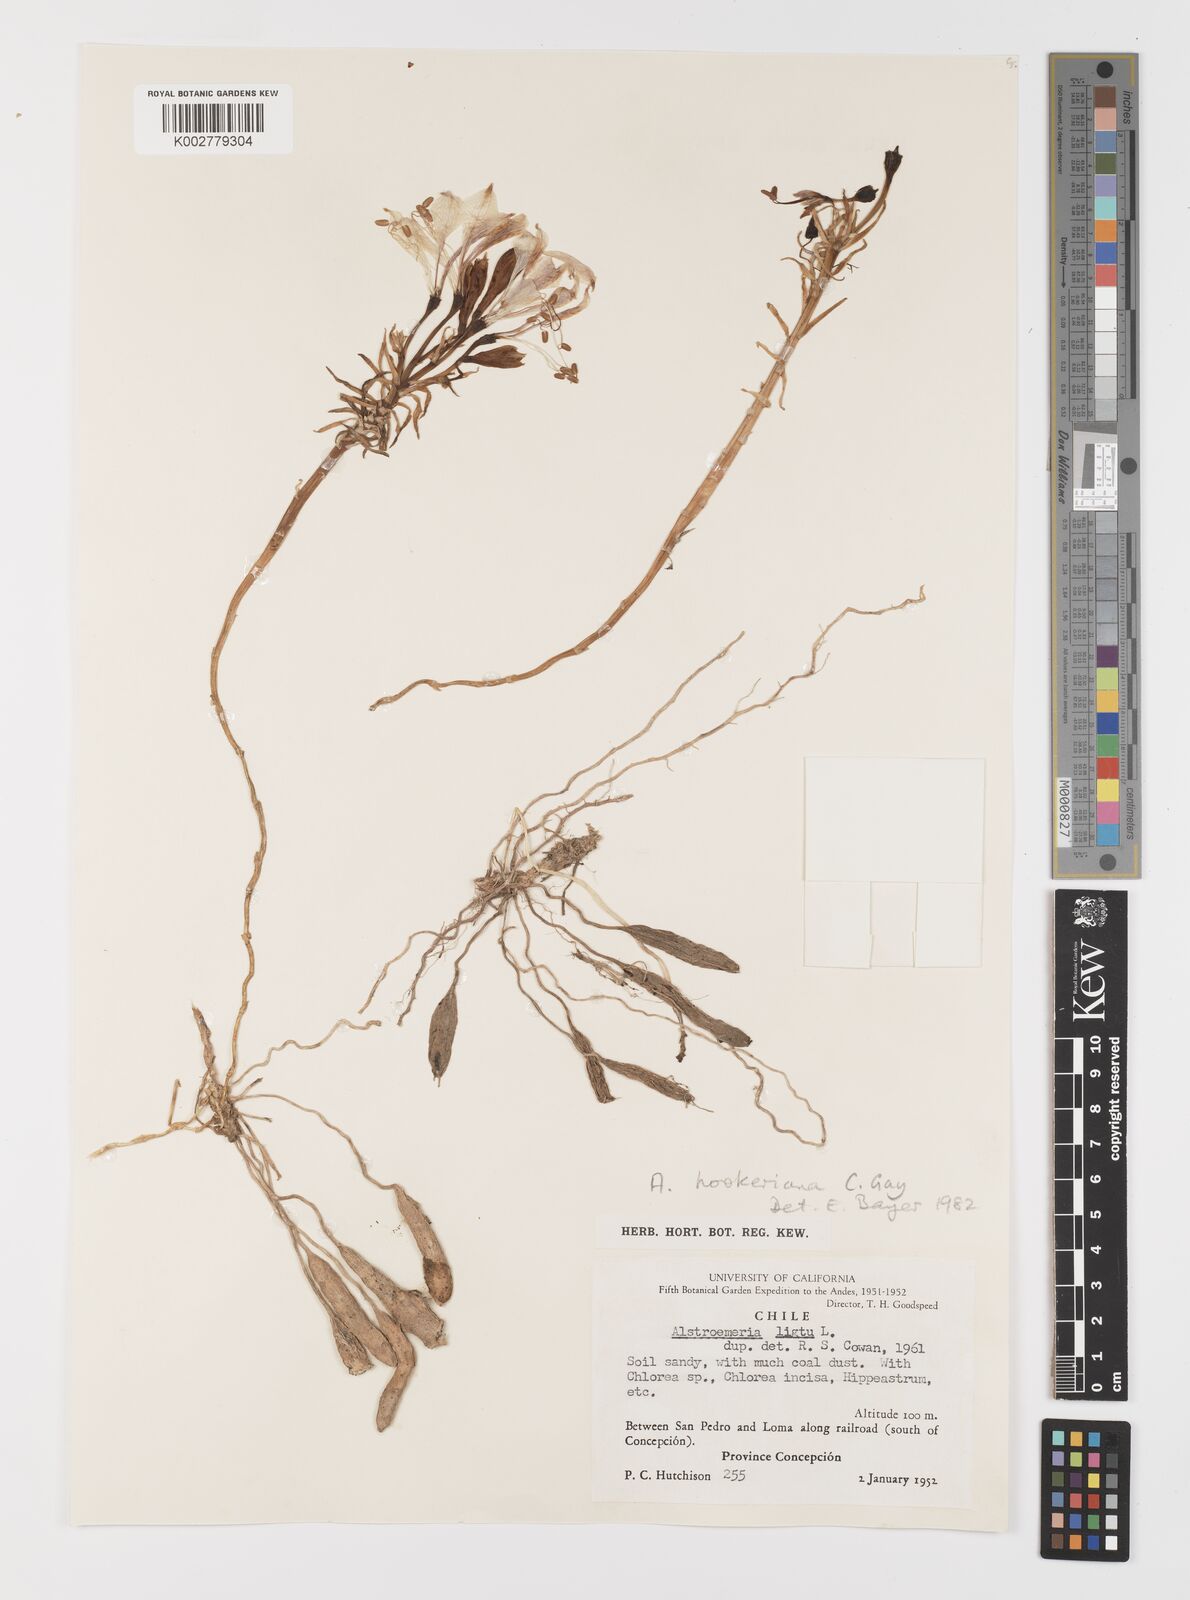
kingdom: Plantae
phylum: Tracheophyta
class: Liliopsida
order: Liliales
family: Alstroemeriaceae
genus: Alstroemeria
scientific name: Alstroemeria ligtu
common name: St. martin's-flower
